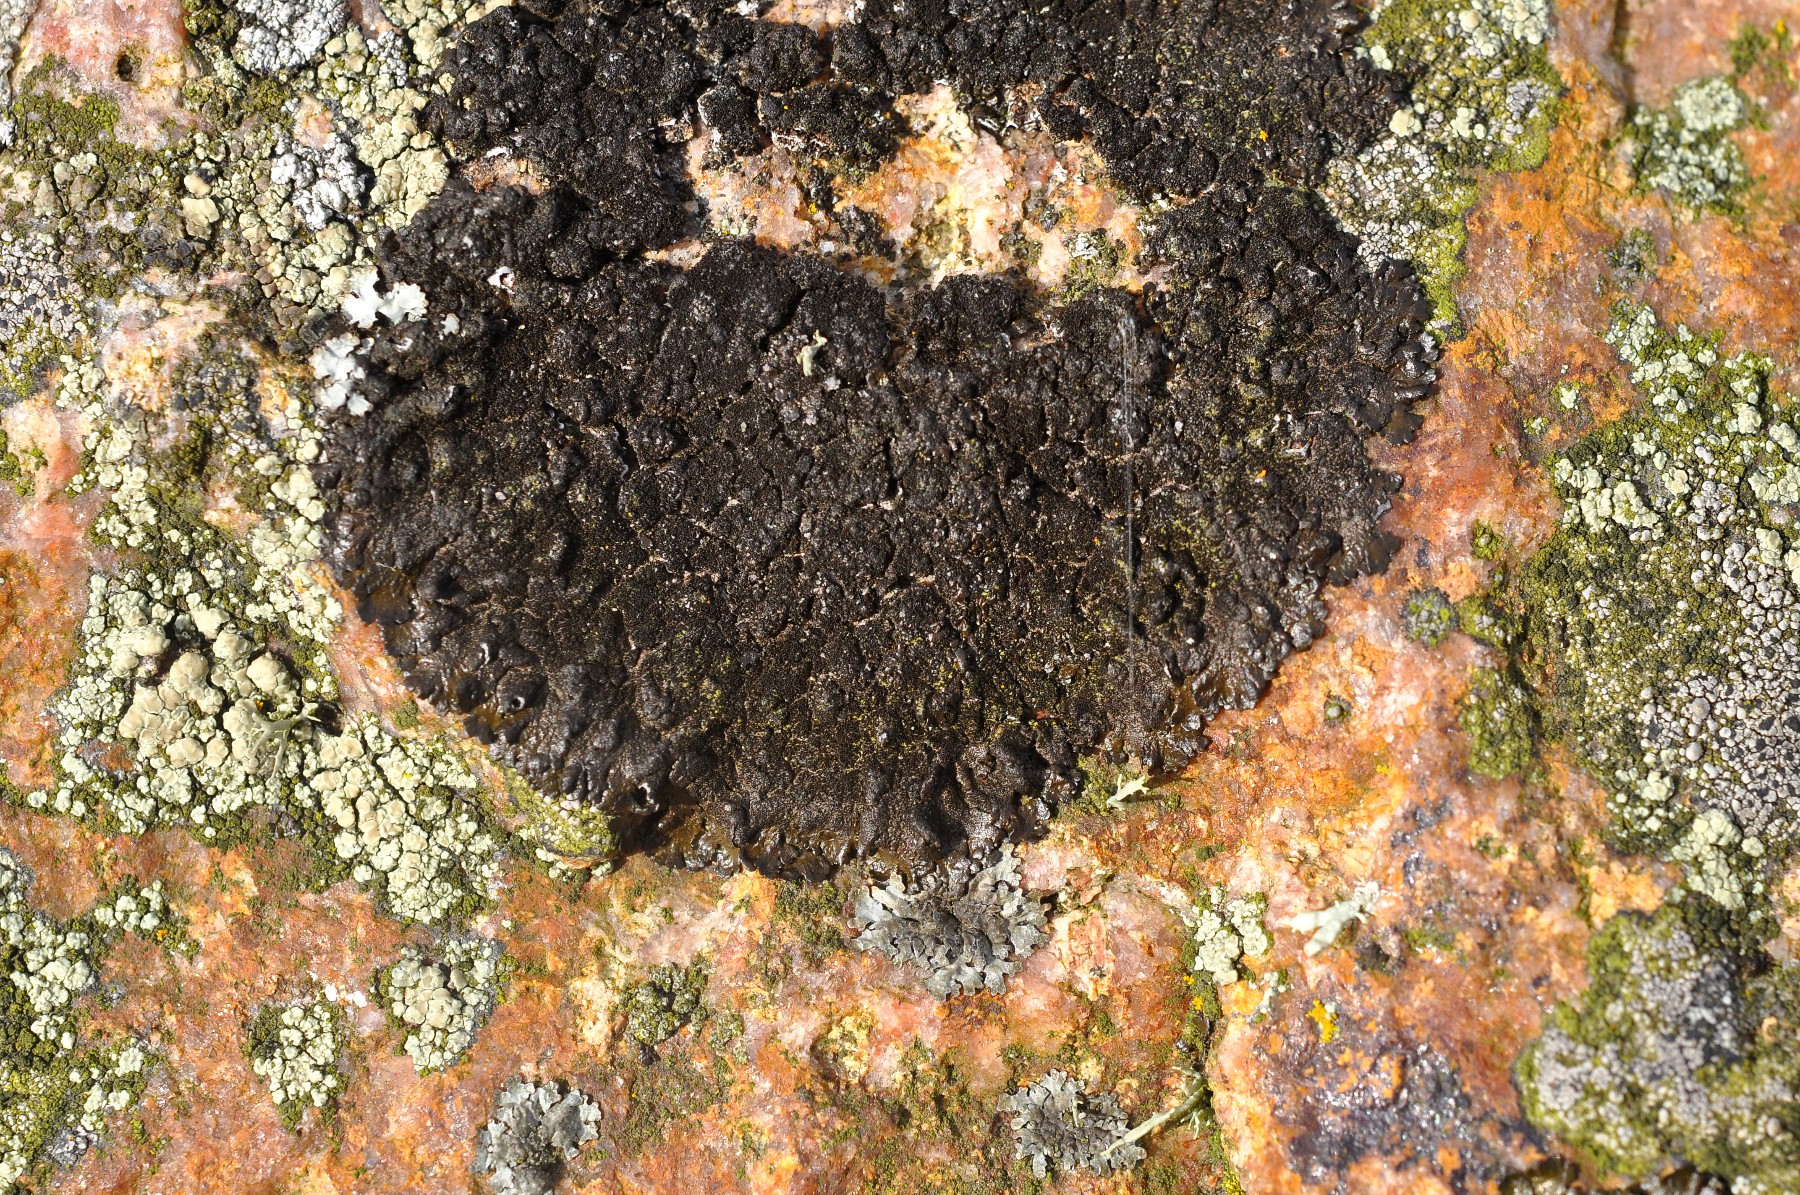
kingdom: Fungi
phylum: Ascomycota
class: Lecanoromycetes
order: Lecanorales
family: Parmeliaceae
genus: Melanelixia
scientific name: Melanelixia fuliginosa
